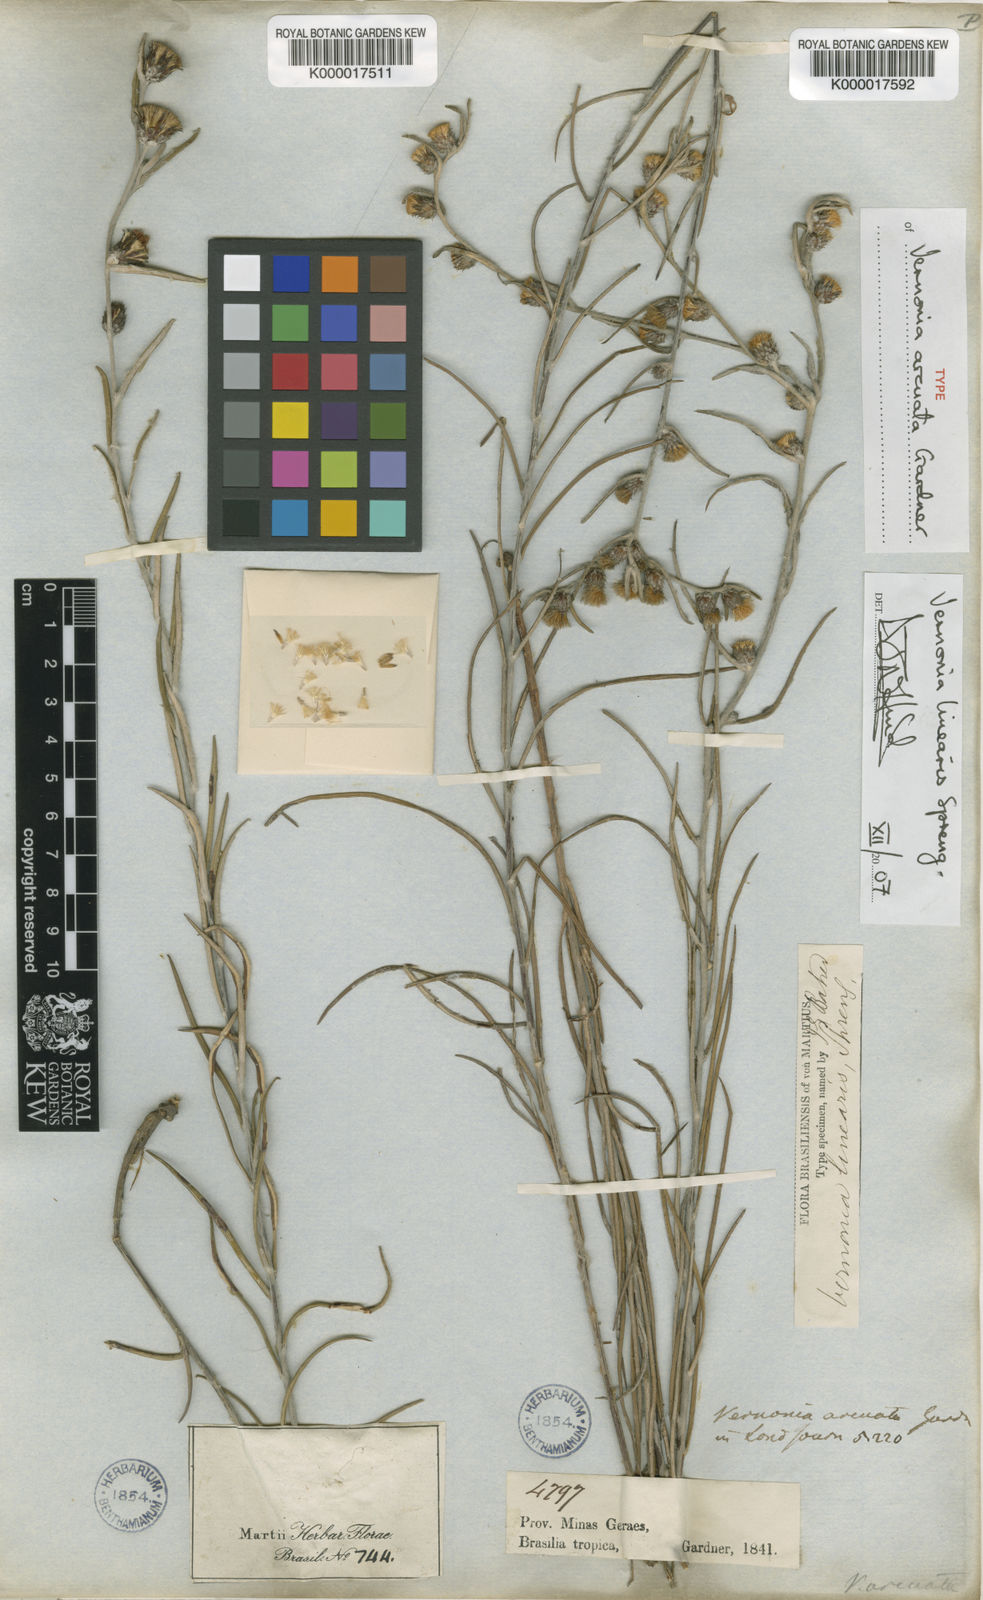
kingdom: Plantae
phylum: Tracheophyta
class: Magnoliopsida
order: Asterales
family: Asteraceae
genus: Lessingianthus
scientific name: Lessingianthus linearis
